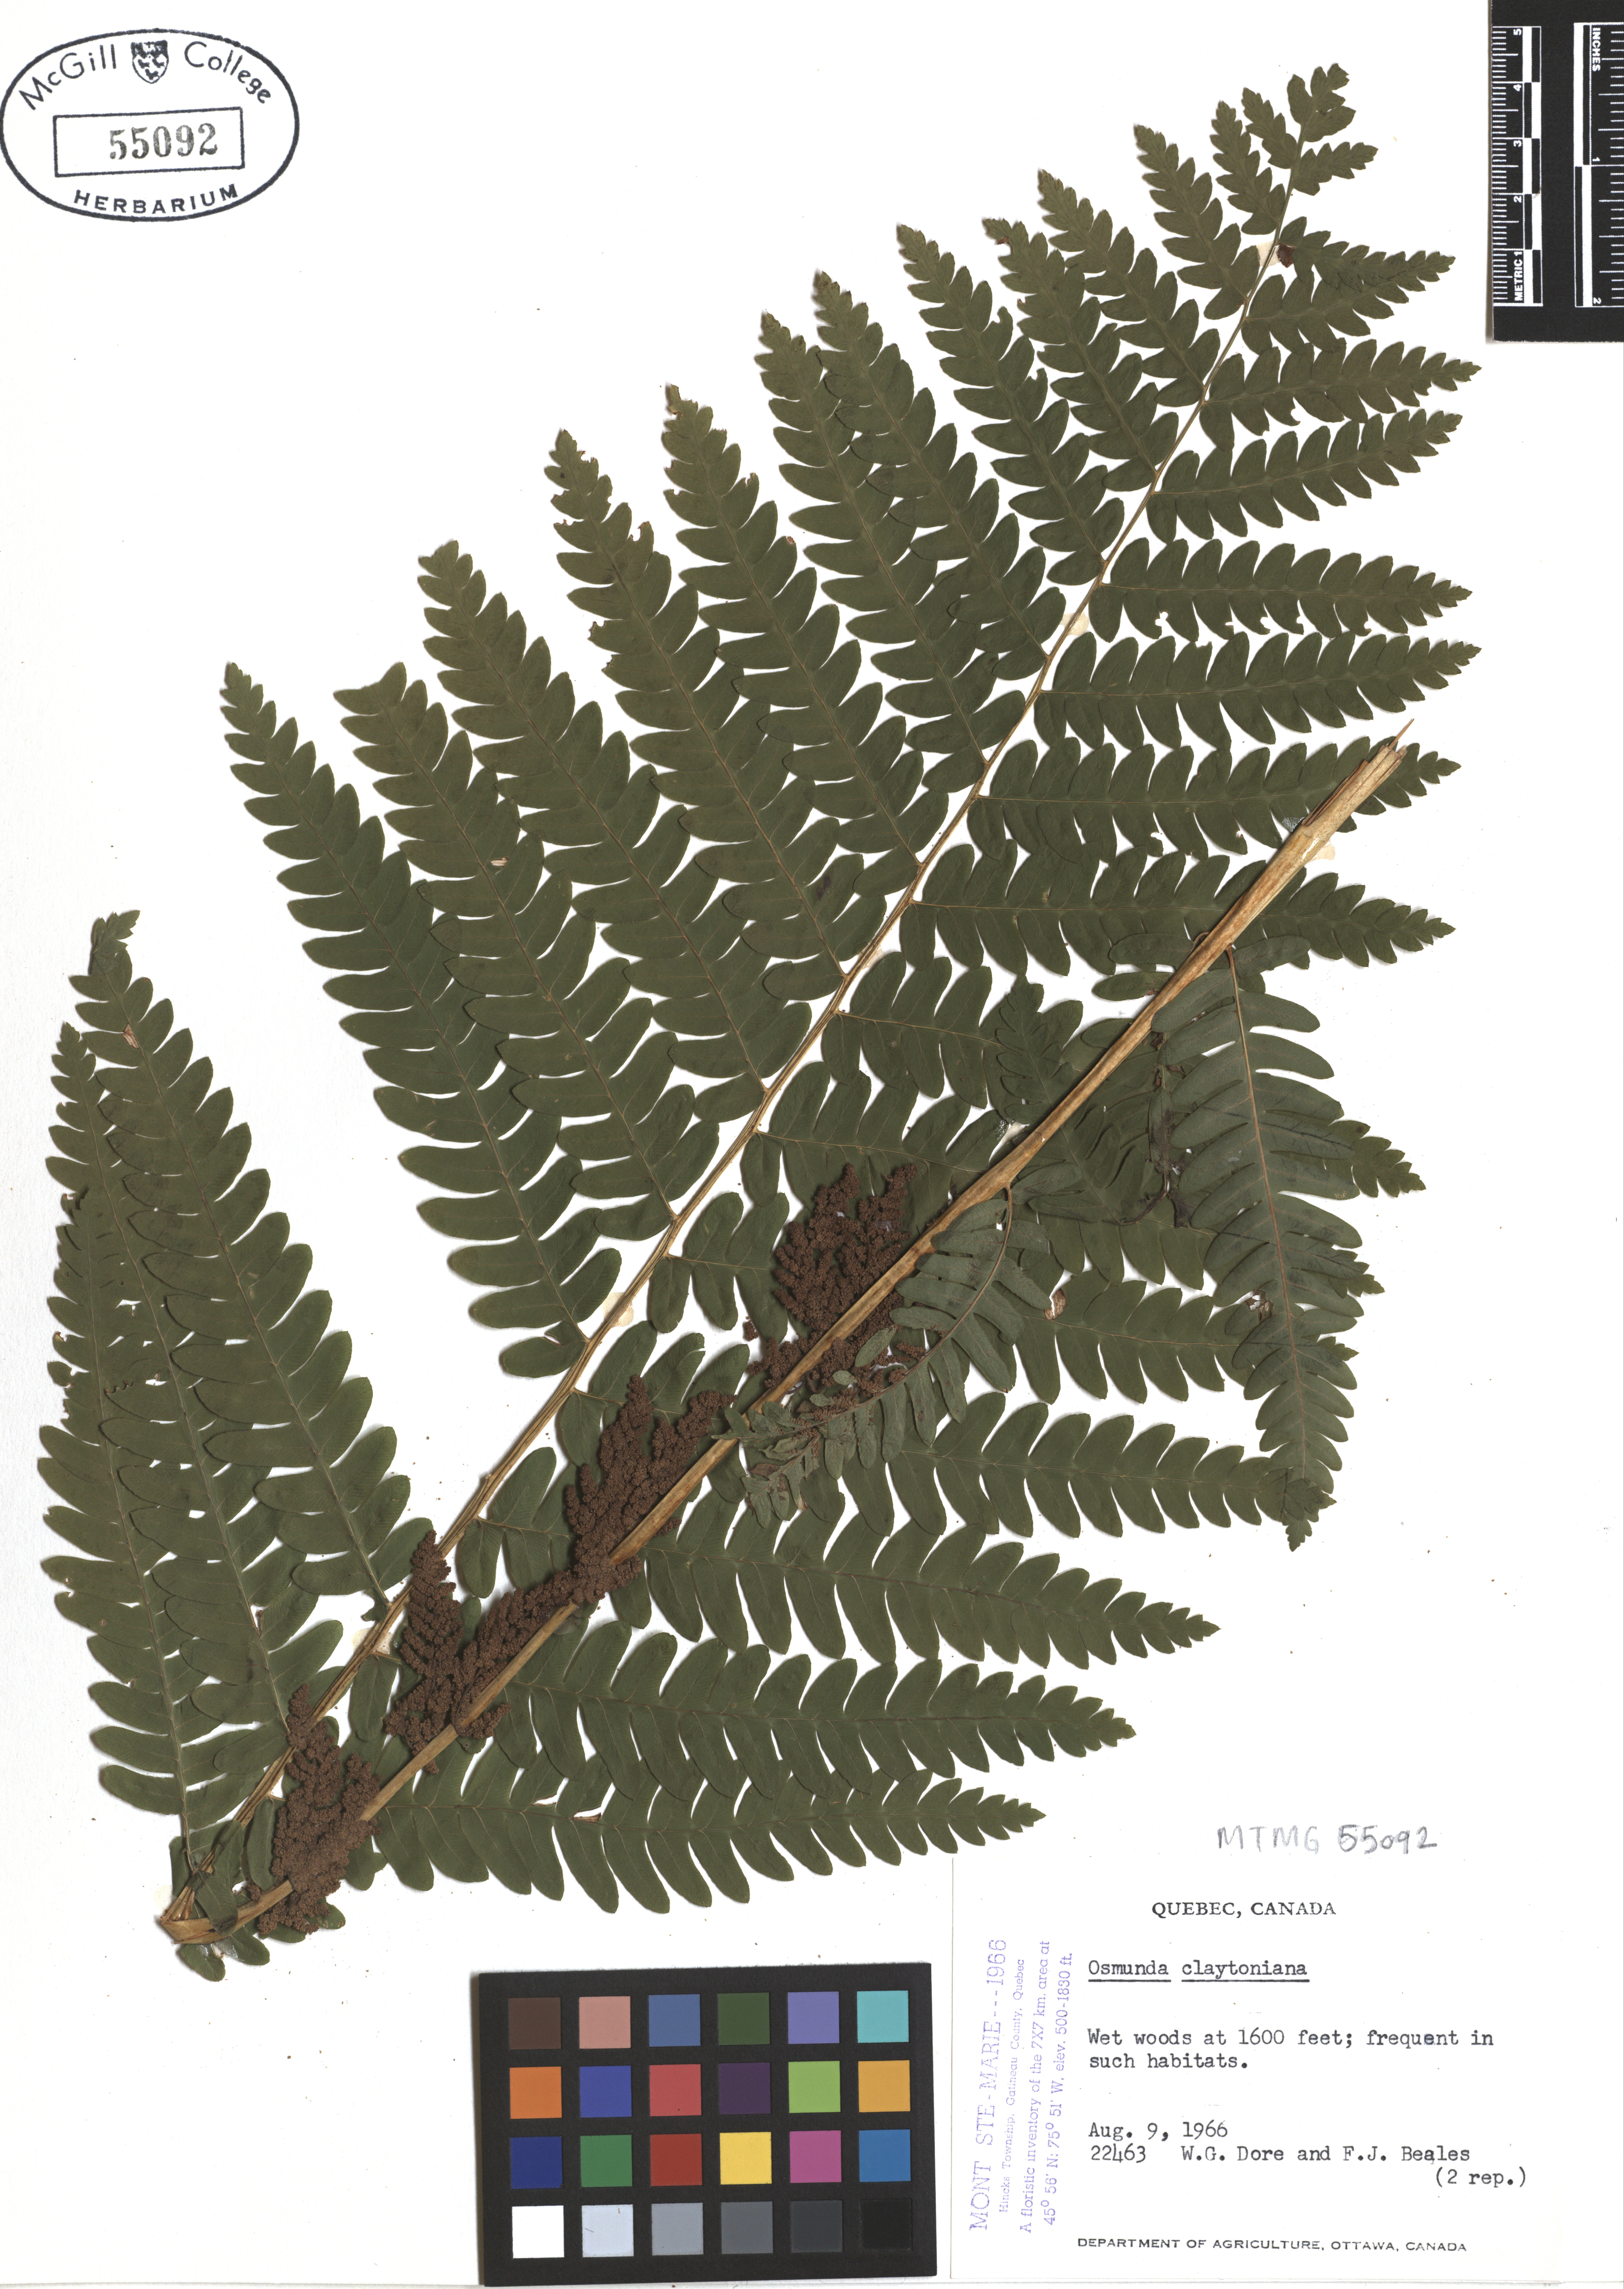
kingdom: Plantae
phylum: Tracheophyta
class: Polypodiopsida
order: Osmundales
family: Osmundaceae
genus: Claytosmunda
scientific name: Claytosmunda claytoniana
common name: Clayton's fern
